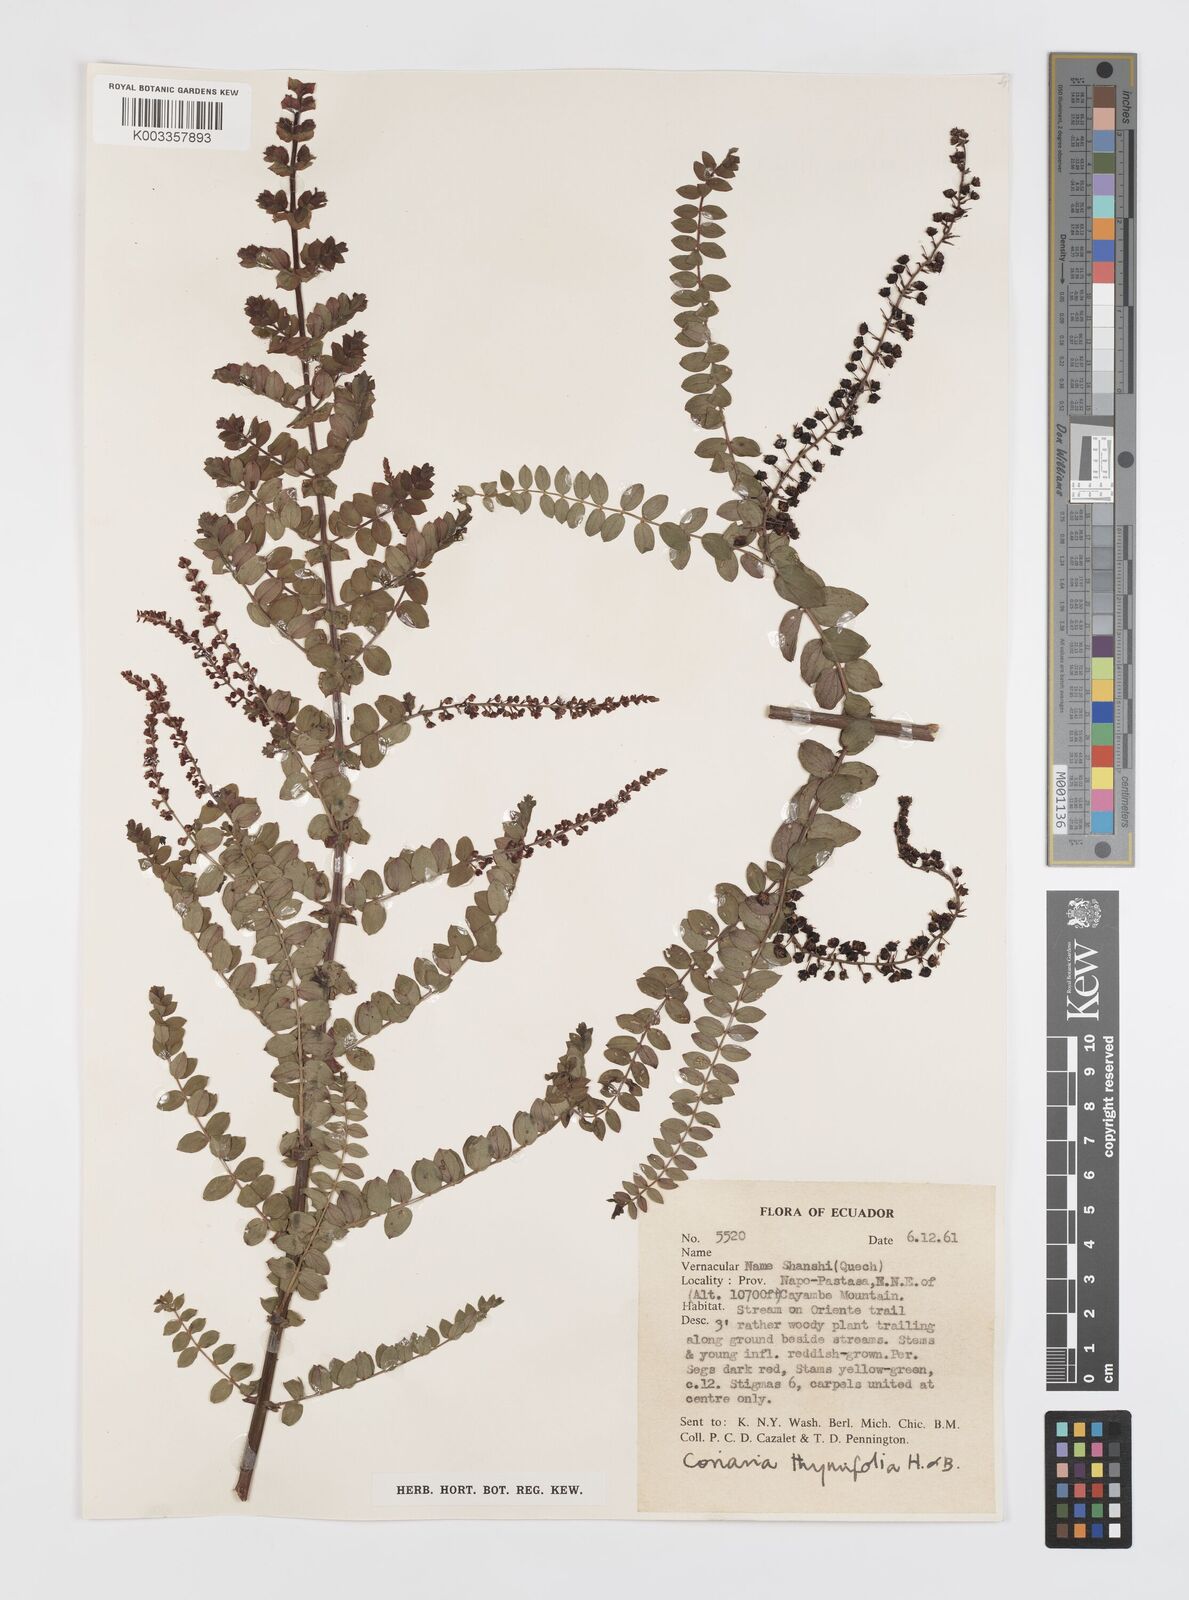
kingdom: Plantae
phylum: Tracheophyta
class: Magnoliopsida
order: Cucurbitales
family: Coriariaceae
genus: Coriaria
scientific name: Coriaria microphylla
